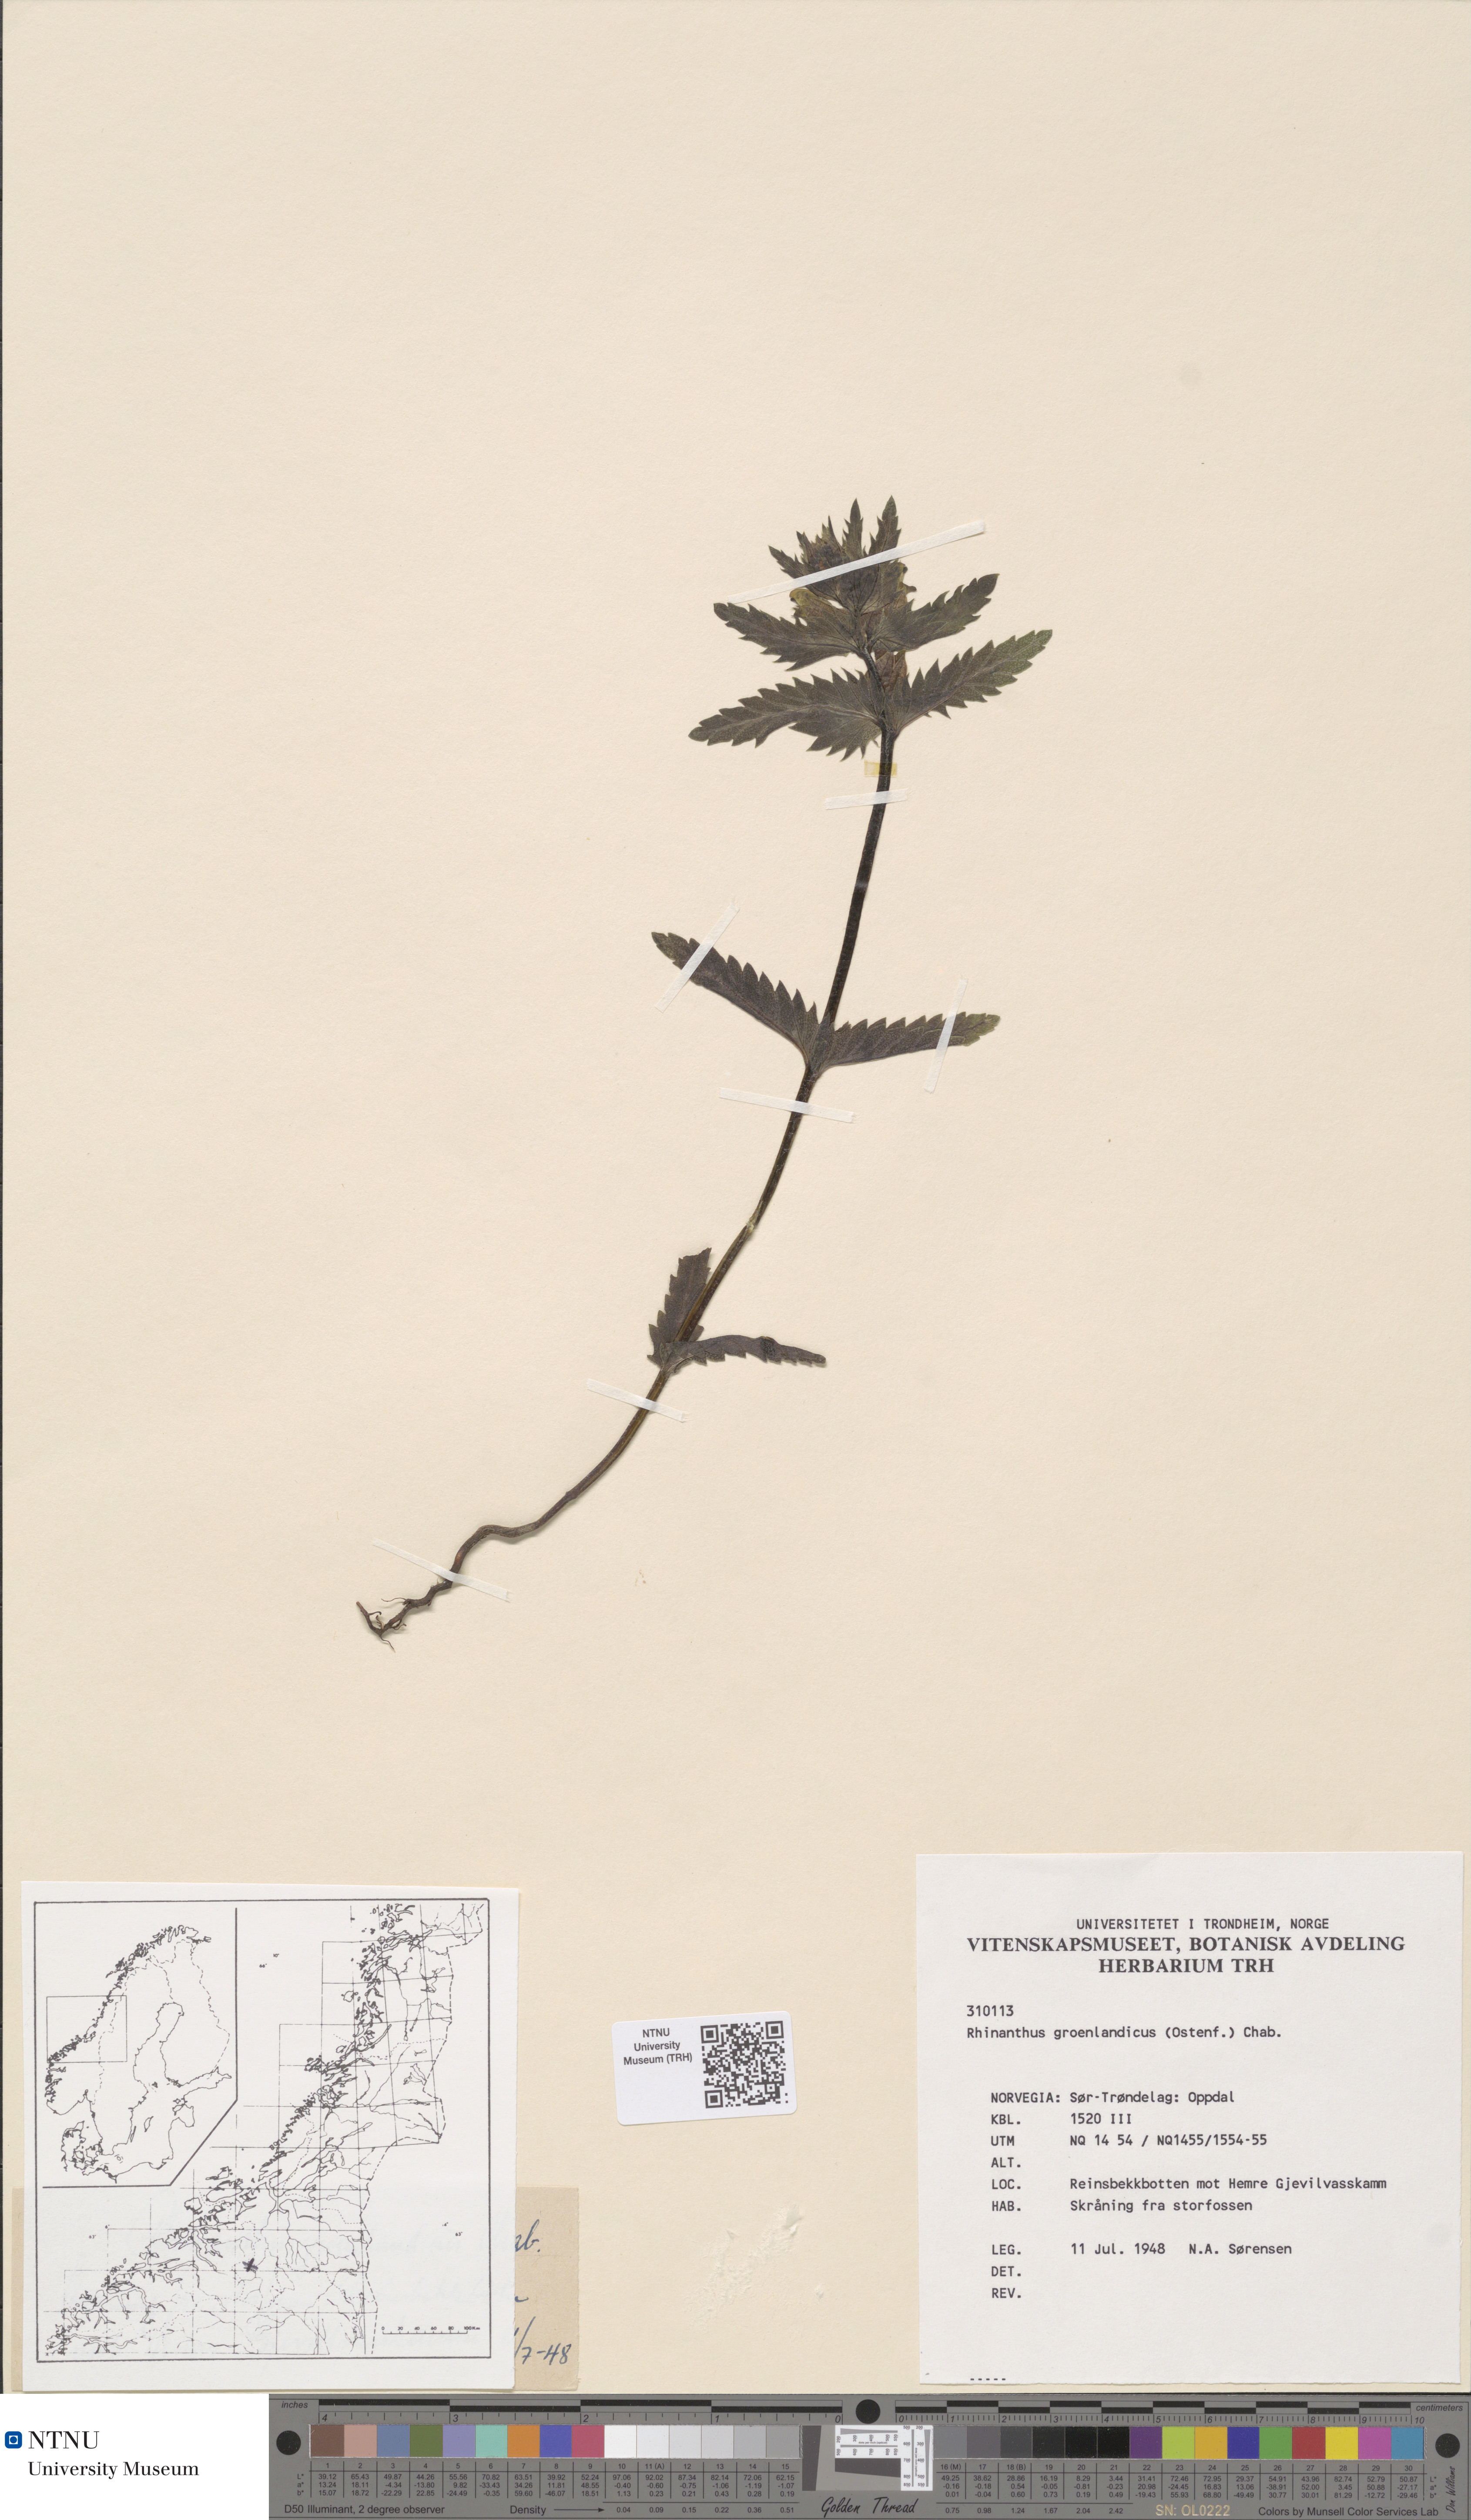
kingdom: Plantae
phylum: Tracheophyta
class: Magnoliopsida
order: Lamiales
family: Orobanchaceae
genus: Rhinanthus
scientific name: Rhinanthus groenlandicus
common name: Little yellow rattle
